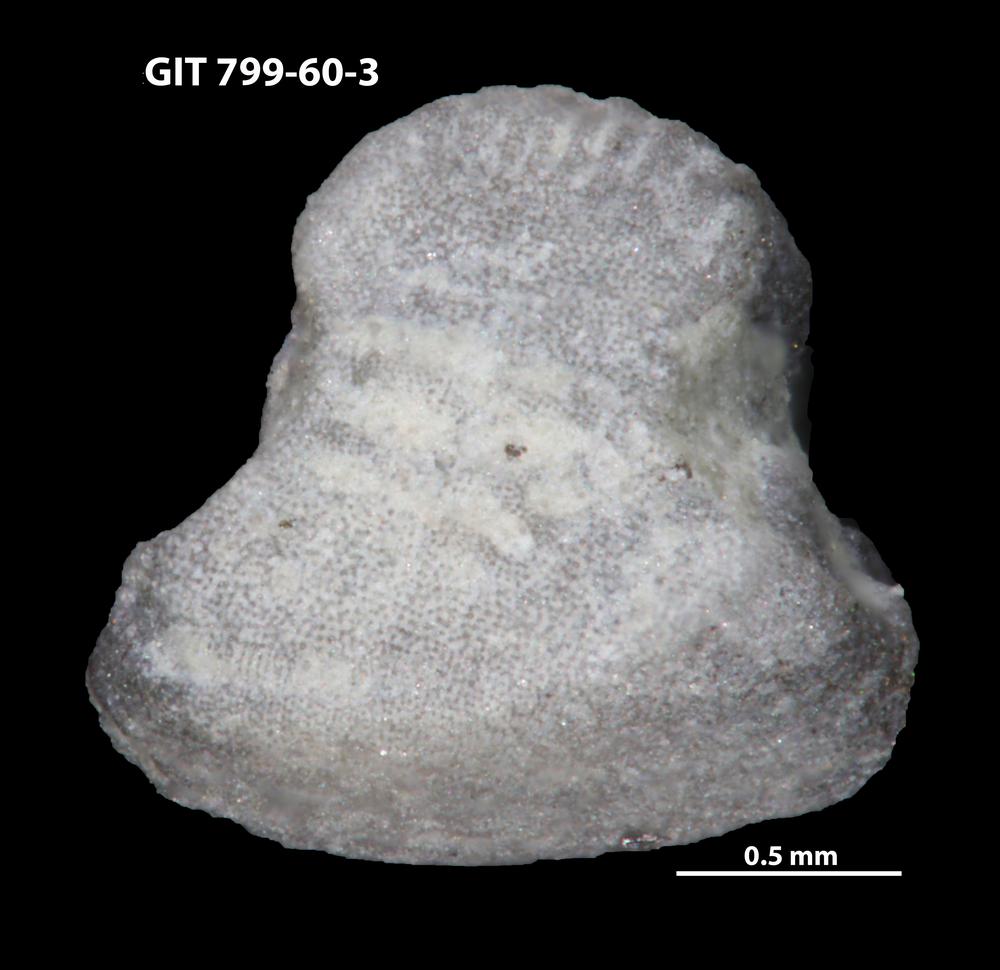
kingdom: Animalia
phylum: Echinodermata
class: Crinoidea
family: Cyclocystoididae
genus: Polytryphocycloides
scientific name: Polytryphocycloides
